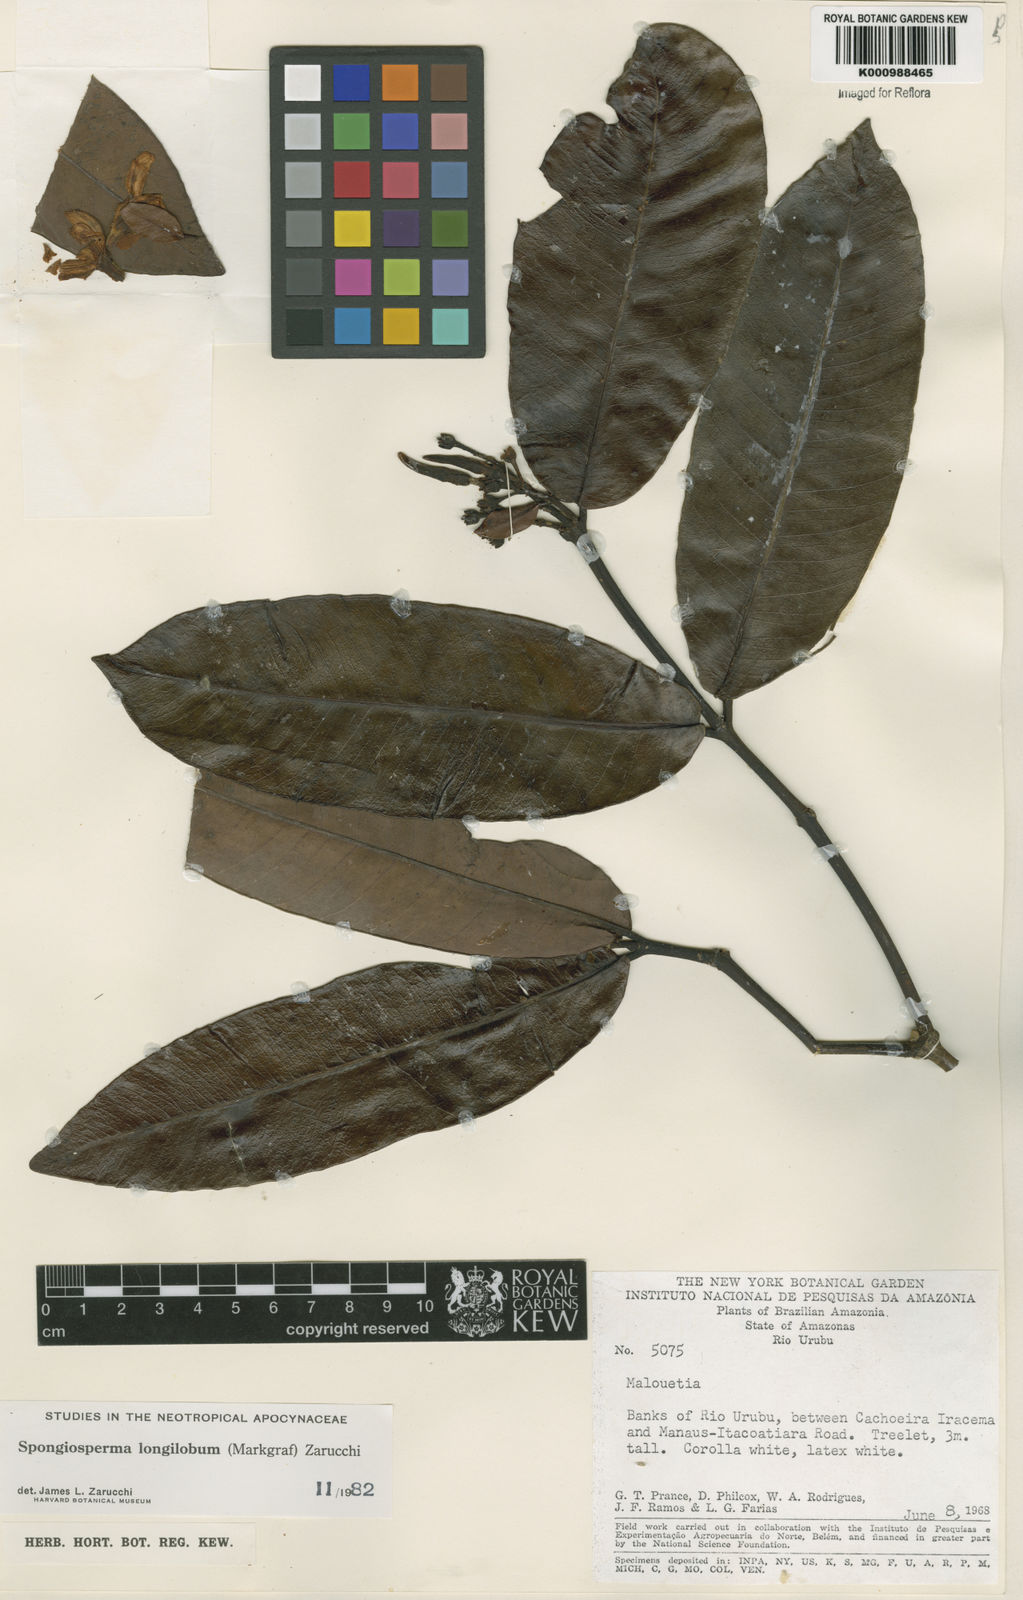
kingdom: Plantae
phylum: Tracheophyta
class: Magnoliopsida
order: Gentianales
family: Apocynaceae
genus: Aspidosperma
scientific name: Aspidosperma
